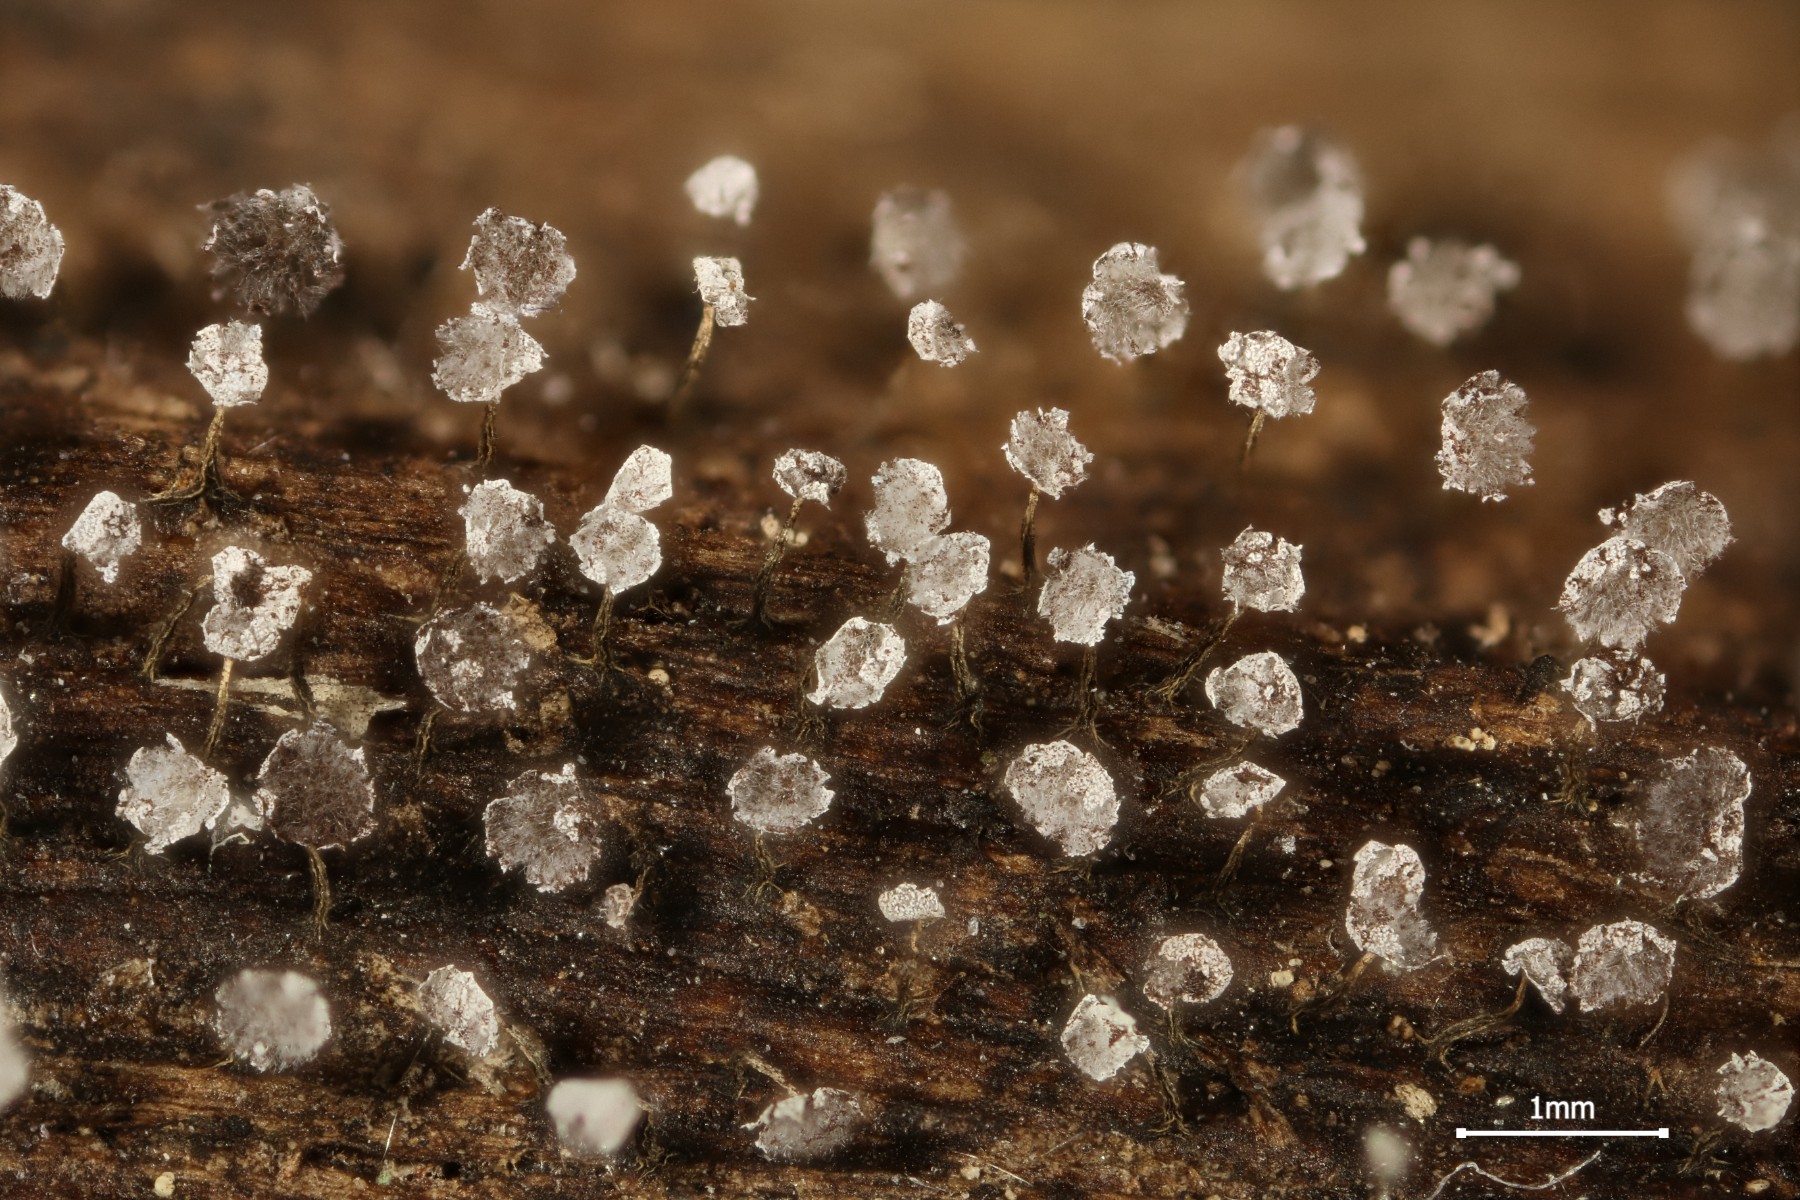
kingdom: Protozoa
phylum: Mycetozoa
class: Myxomycetes
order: Physarales
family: Physaraceae
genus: Physarum
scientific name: Physarum album
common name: nikkende støvknop
